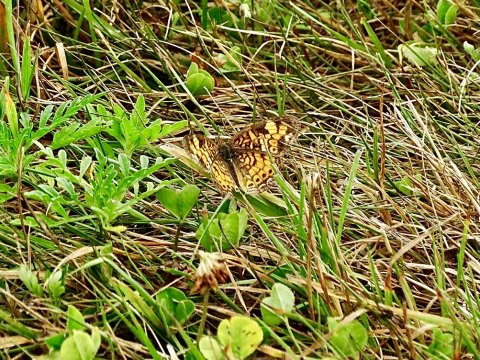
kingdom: Animalia
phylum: Arthropoda
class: Insecta
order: Lepidoptera
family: Nymphalidae
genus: Phyciodes
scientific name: Phyciodes tharos
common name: Pearl Crescent
